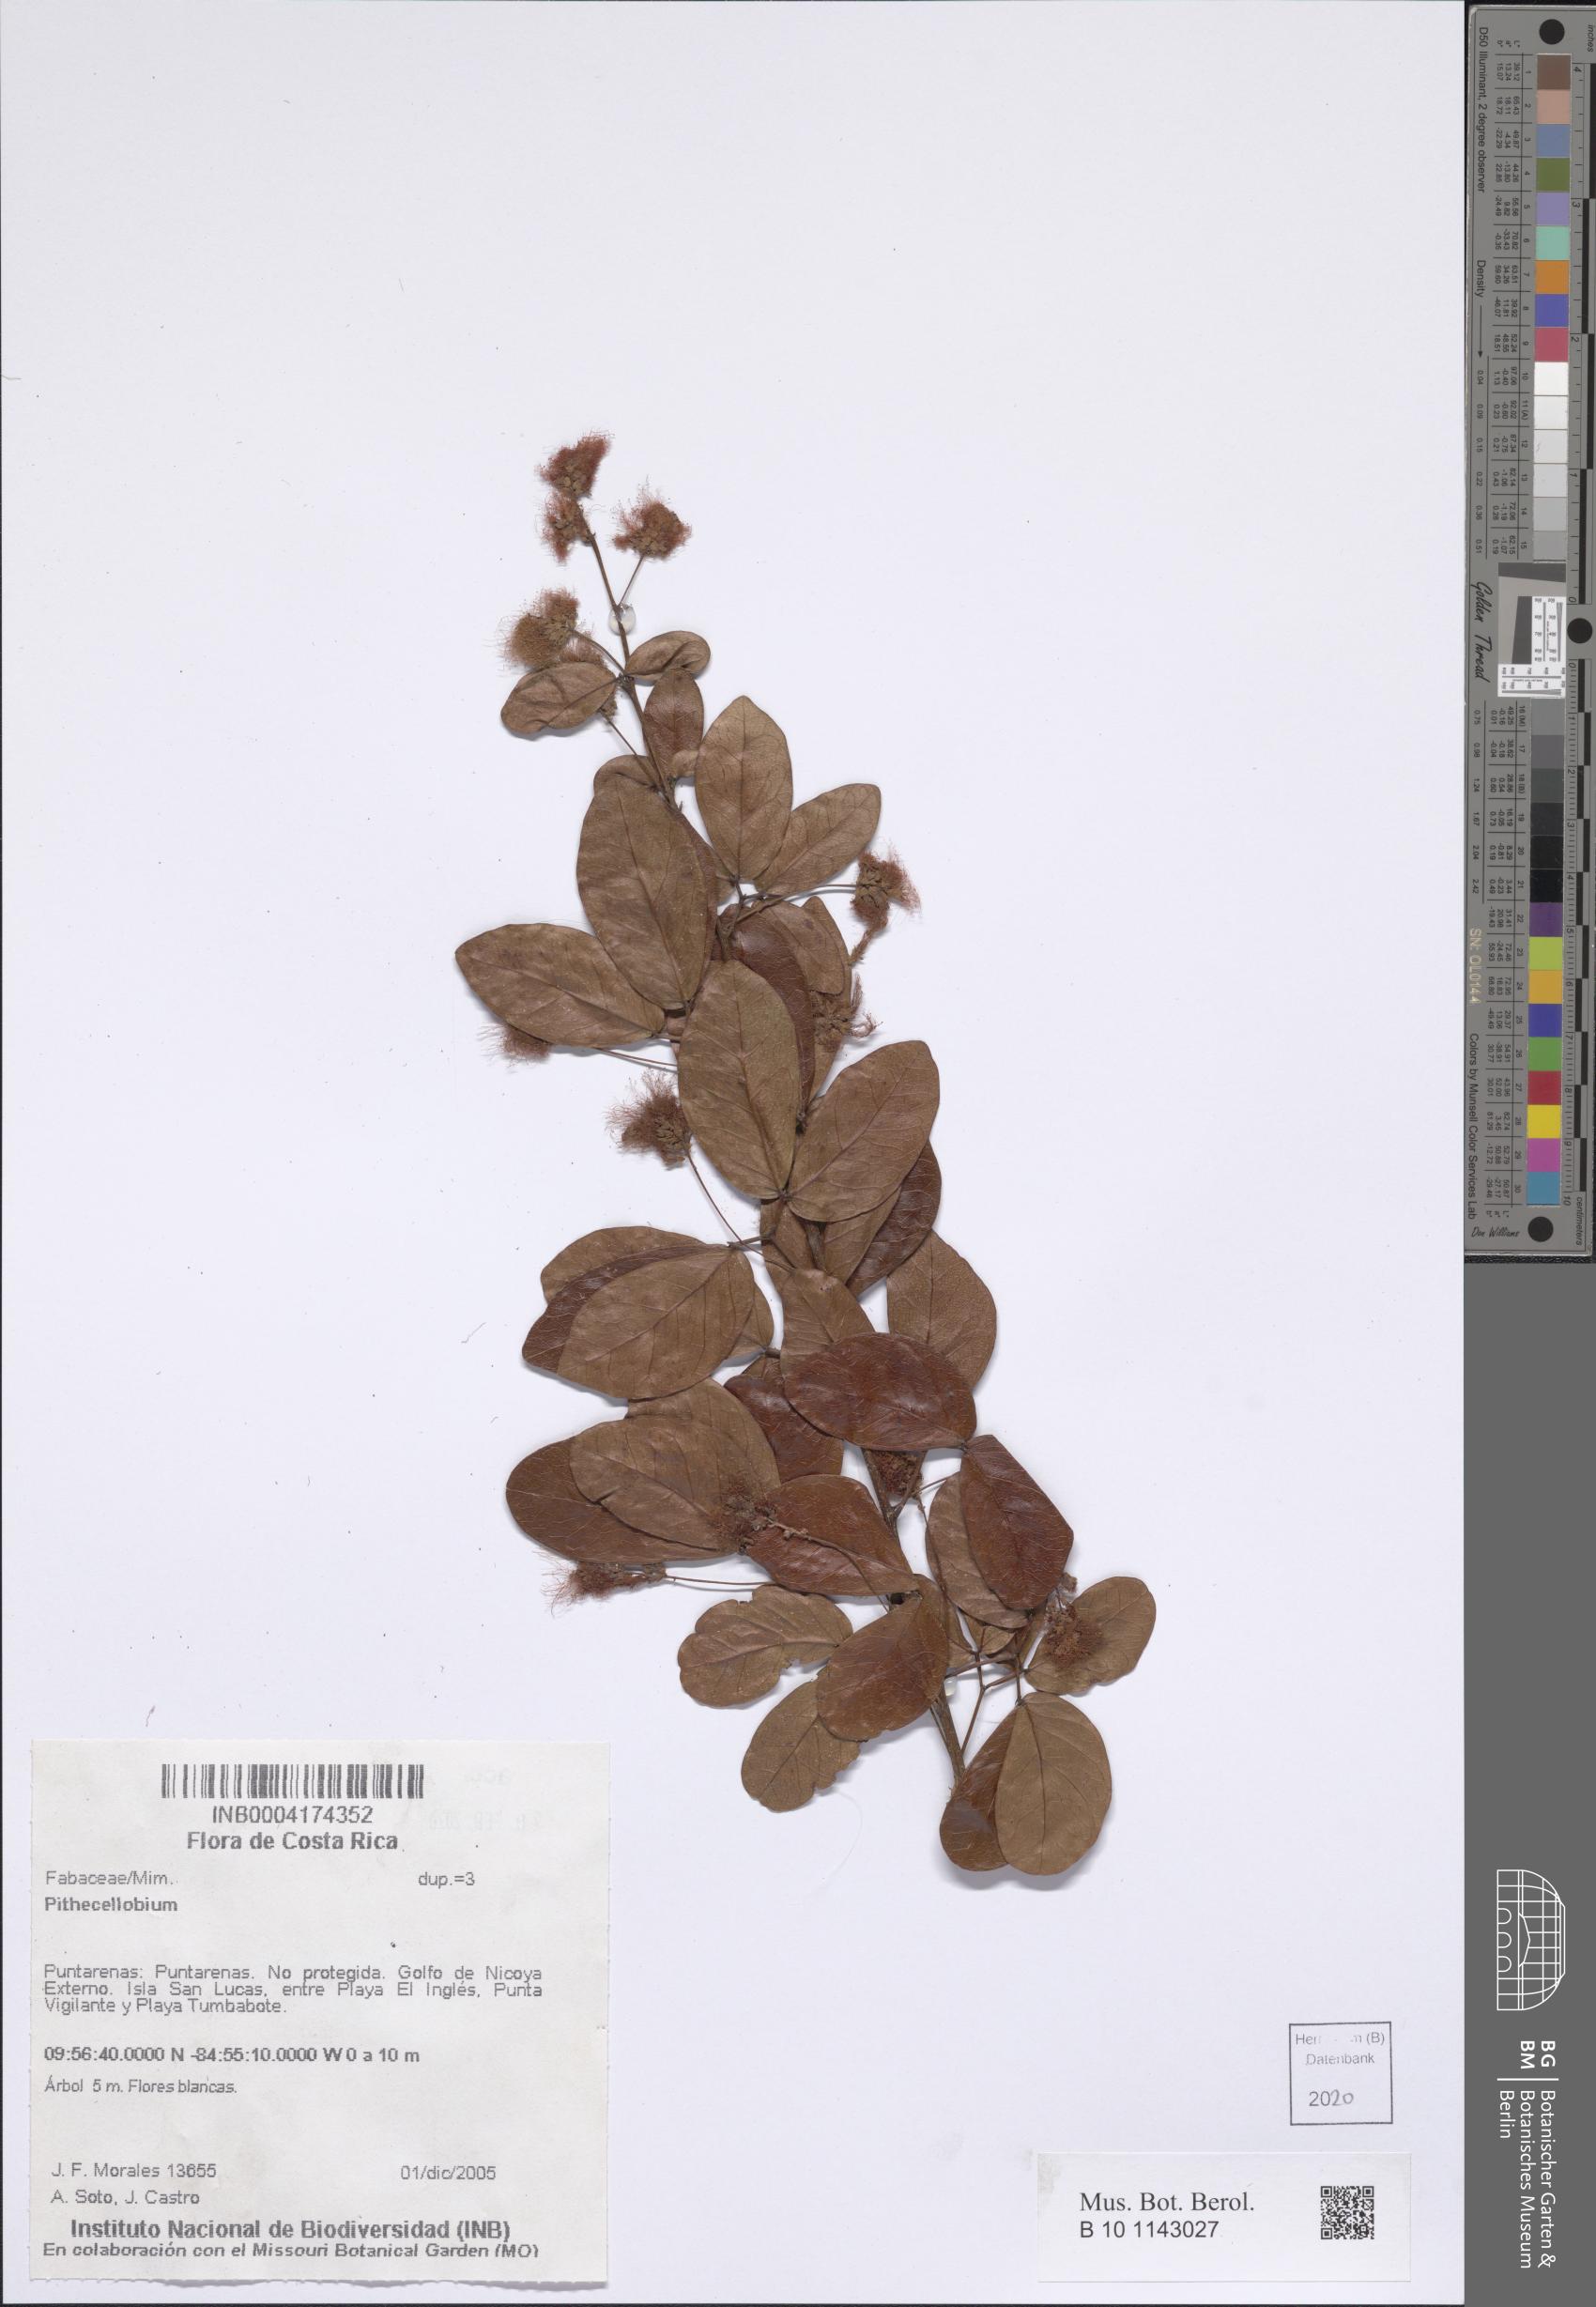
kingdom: Plantae
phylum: Tracheophyta
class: Magnoliopsida
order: Fabales
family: Fabaceae
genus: Pithecellobium
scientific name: Pithecellobium
